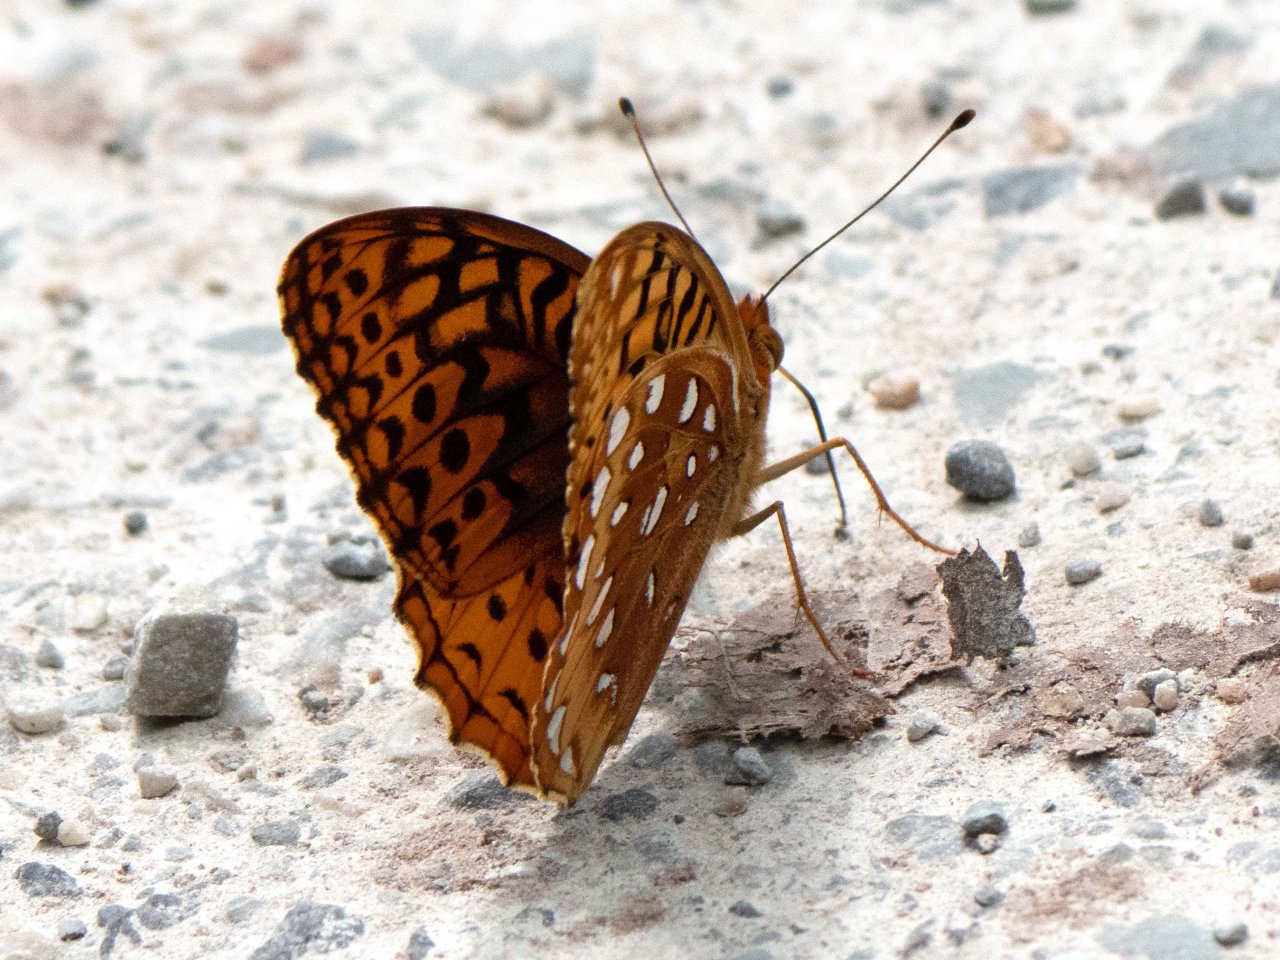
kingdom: Animalia
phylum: Arthropoda
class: Insecta
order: Lepidoptera
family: Nymphalidae
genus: Speyeria
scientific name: Speyeria cybele
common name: Great Spangled Fritillary
